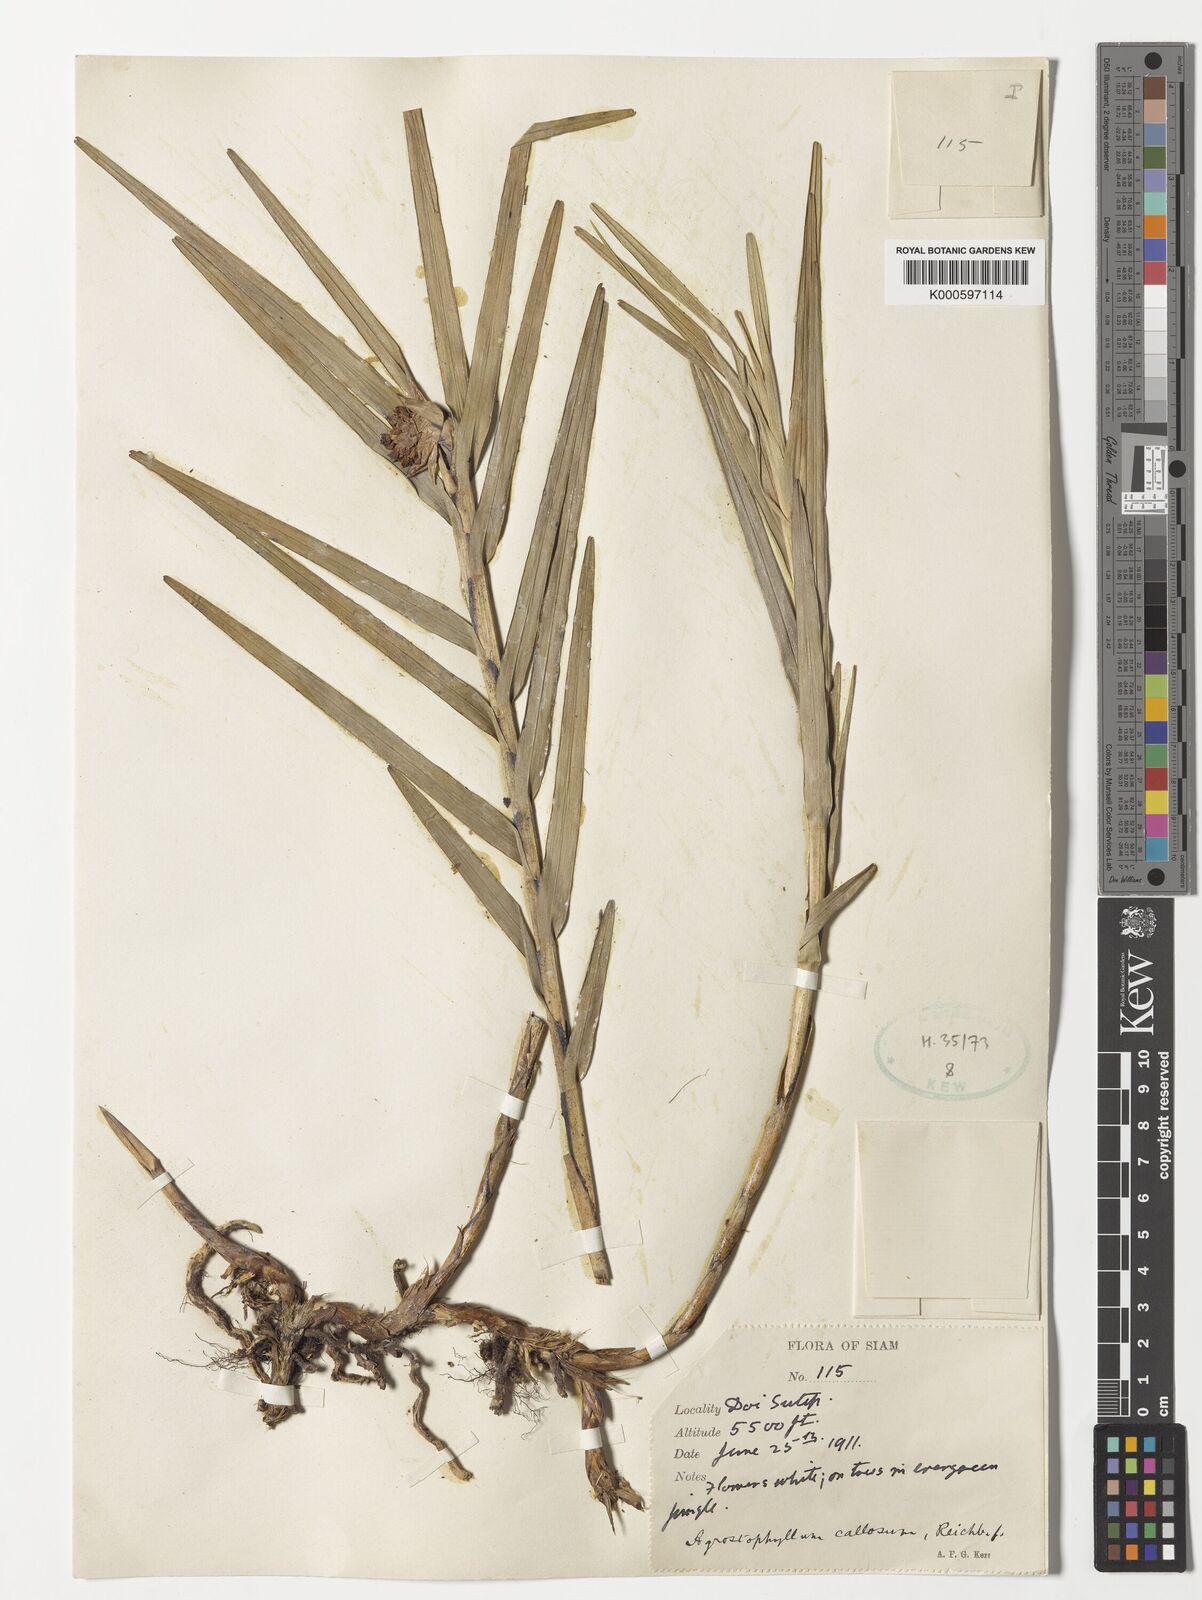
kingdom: Plantae
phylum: Tracheophyta
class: Liliopsida
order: Asparagales
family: Orchidaceae
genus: Agrostophyllum
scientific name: Agrostophyllum callosum
